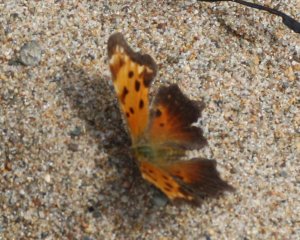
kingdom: Animalia
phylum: Arthropoda
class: Insecta
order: Lepidoptera
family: Nymphalidae
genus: Polygonia
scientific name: Polygonia progne
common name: Gray Comma
